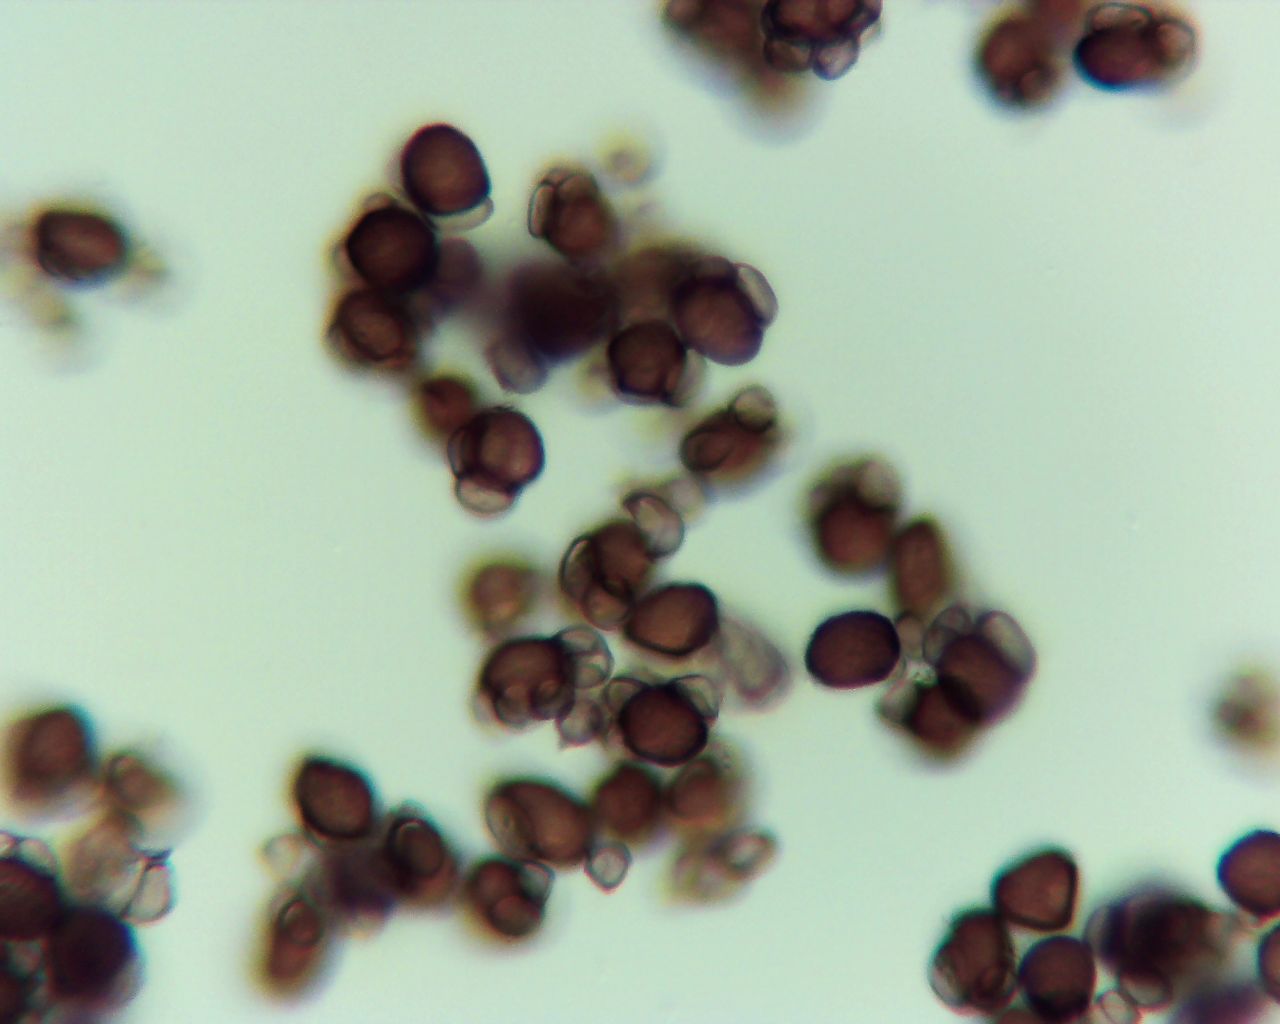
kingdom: Fungi
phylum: Basidiomycota
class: Ustilaginomycetes
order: Urocystidales
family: Urocystidaceae
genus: Urocystis
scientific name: Urocystis anemones
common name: anemone-brand
